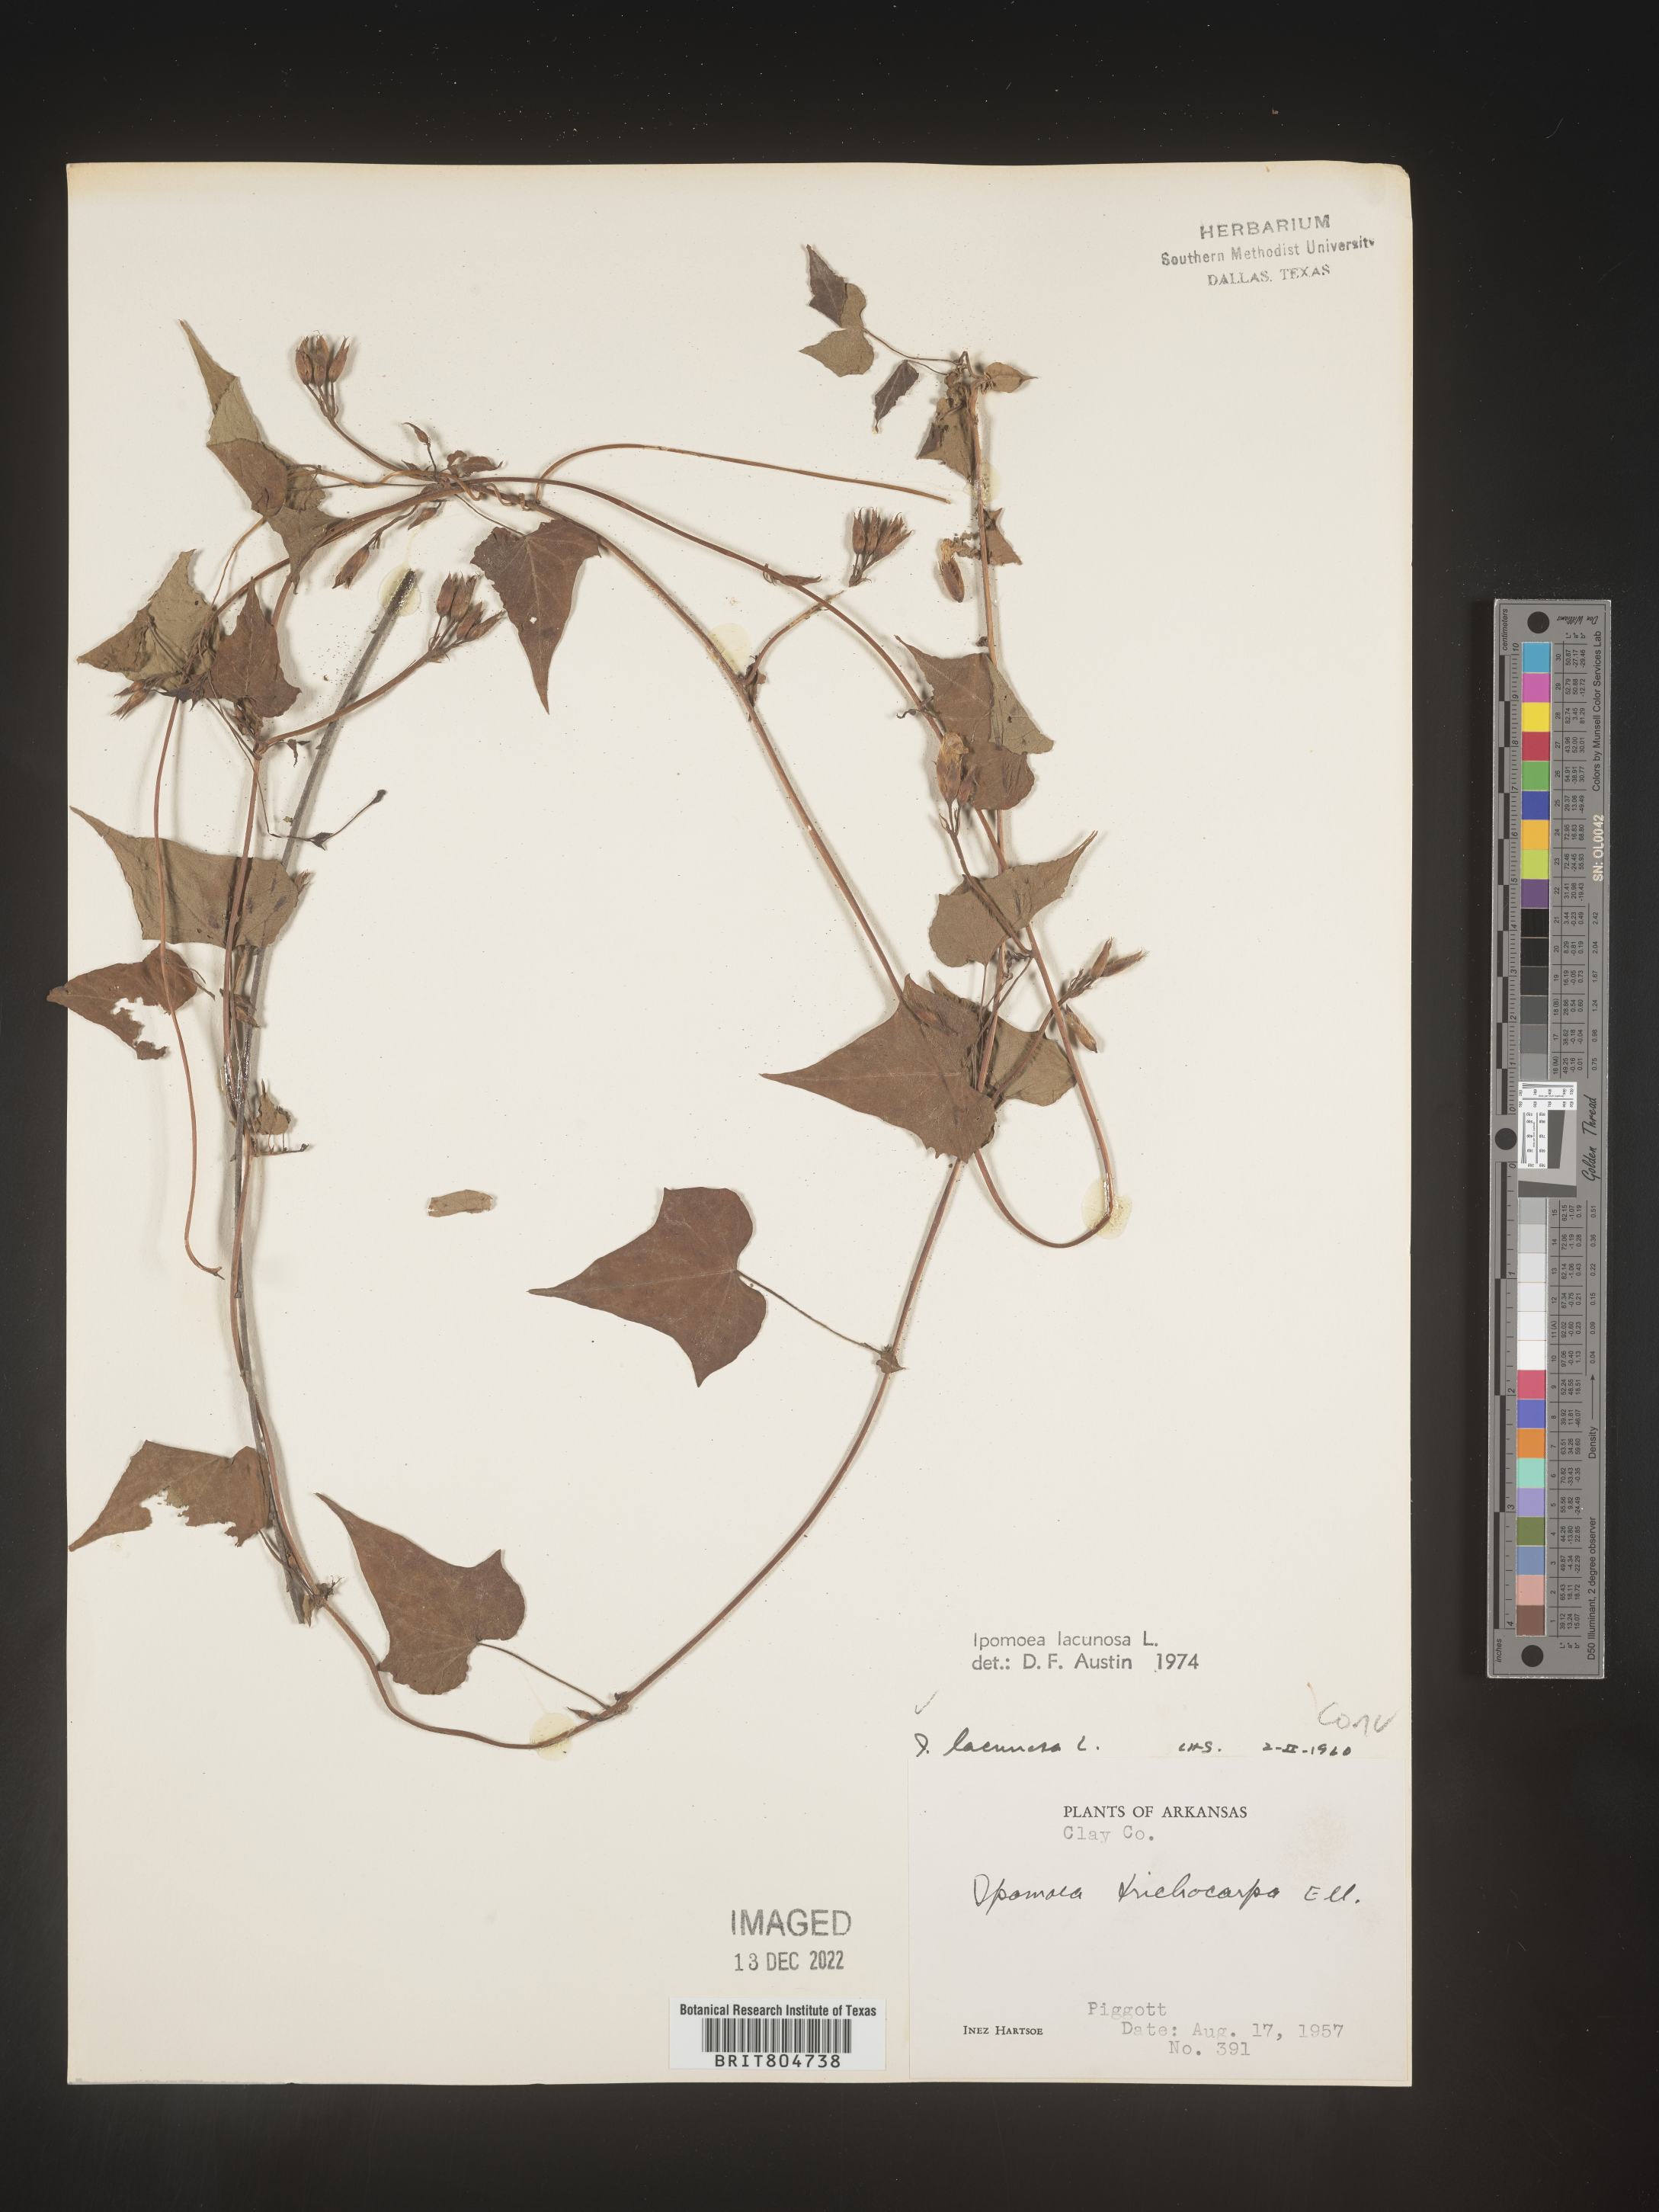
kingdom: Plantae
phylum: Tracheophyta
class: Magnoliopsida
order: Solanales
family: Convolvulaceae
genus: Ipomoea
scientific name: Ipomoea lacunosa
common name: White morning-glory
